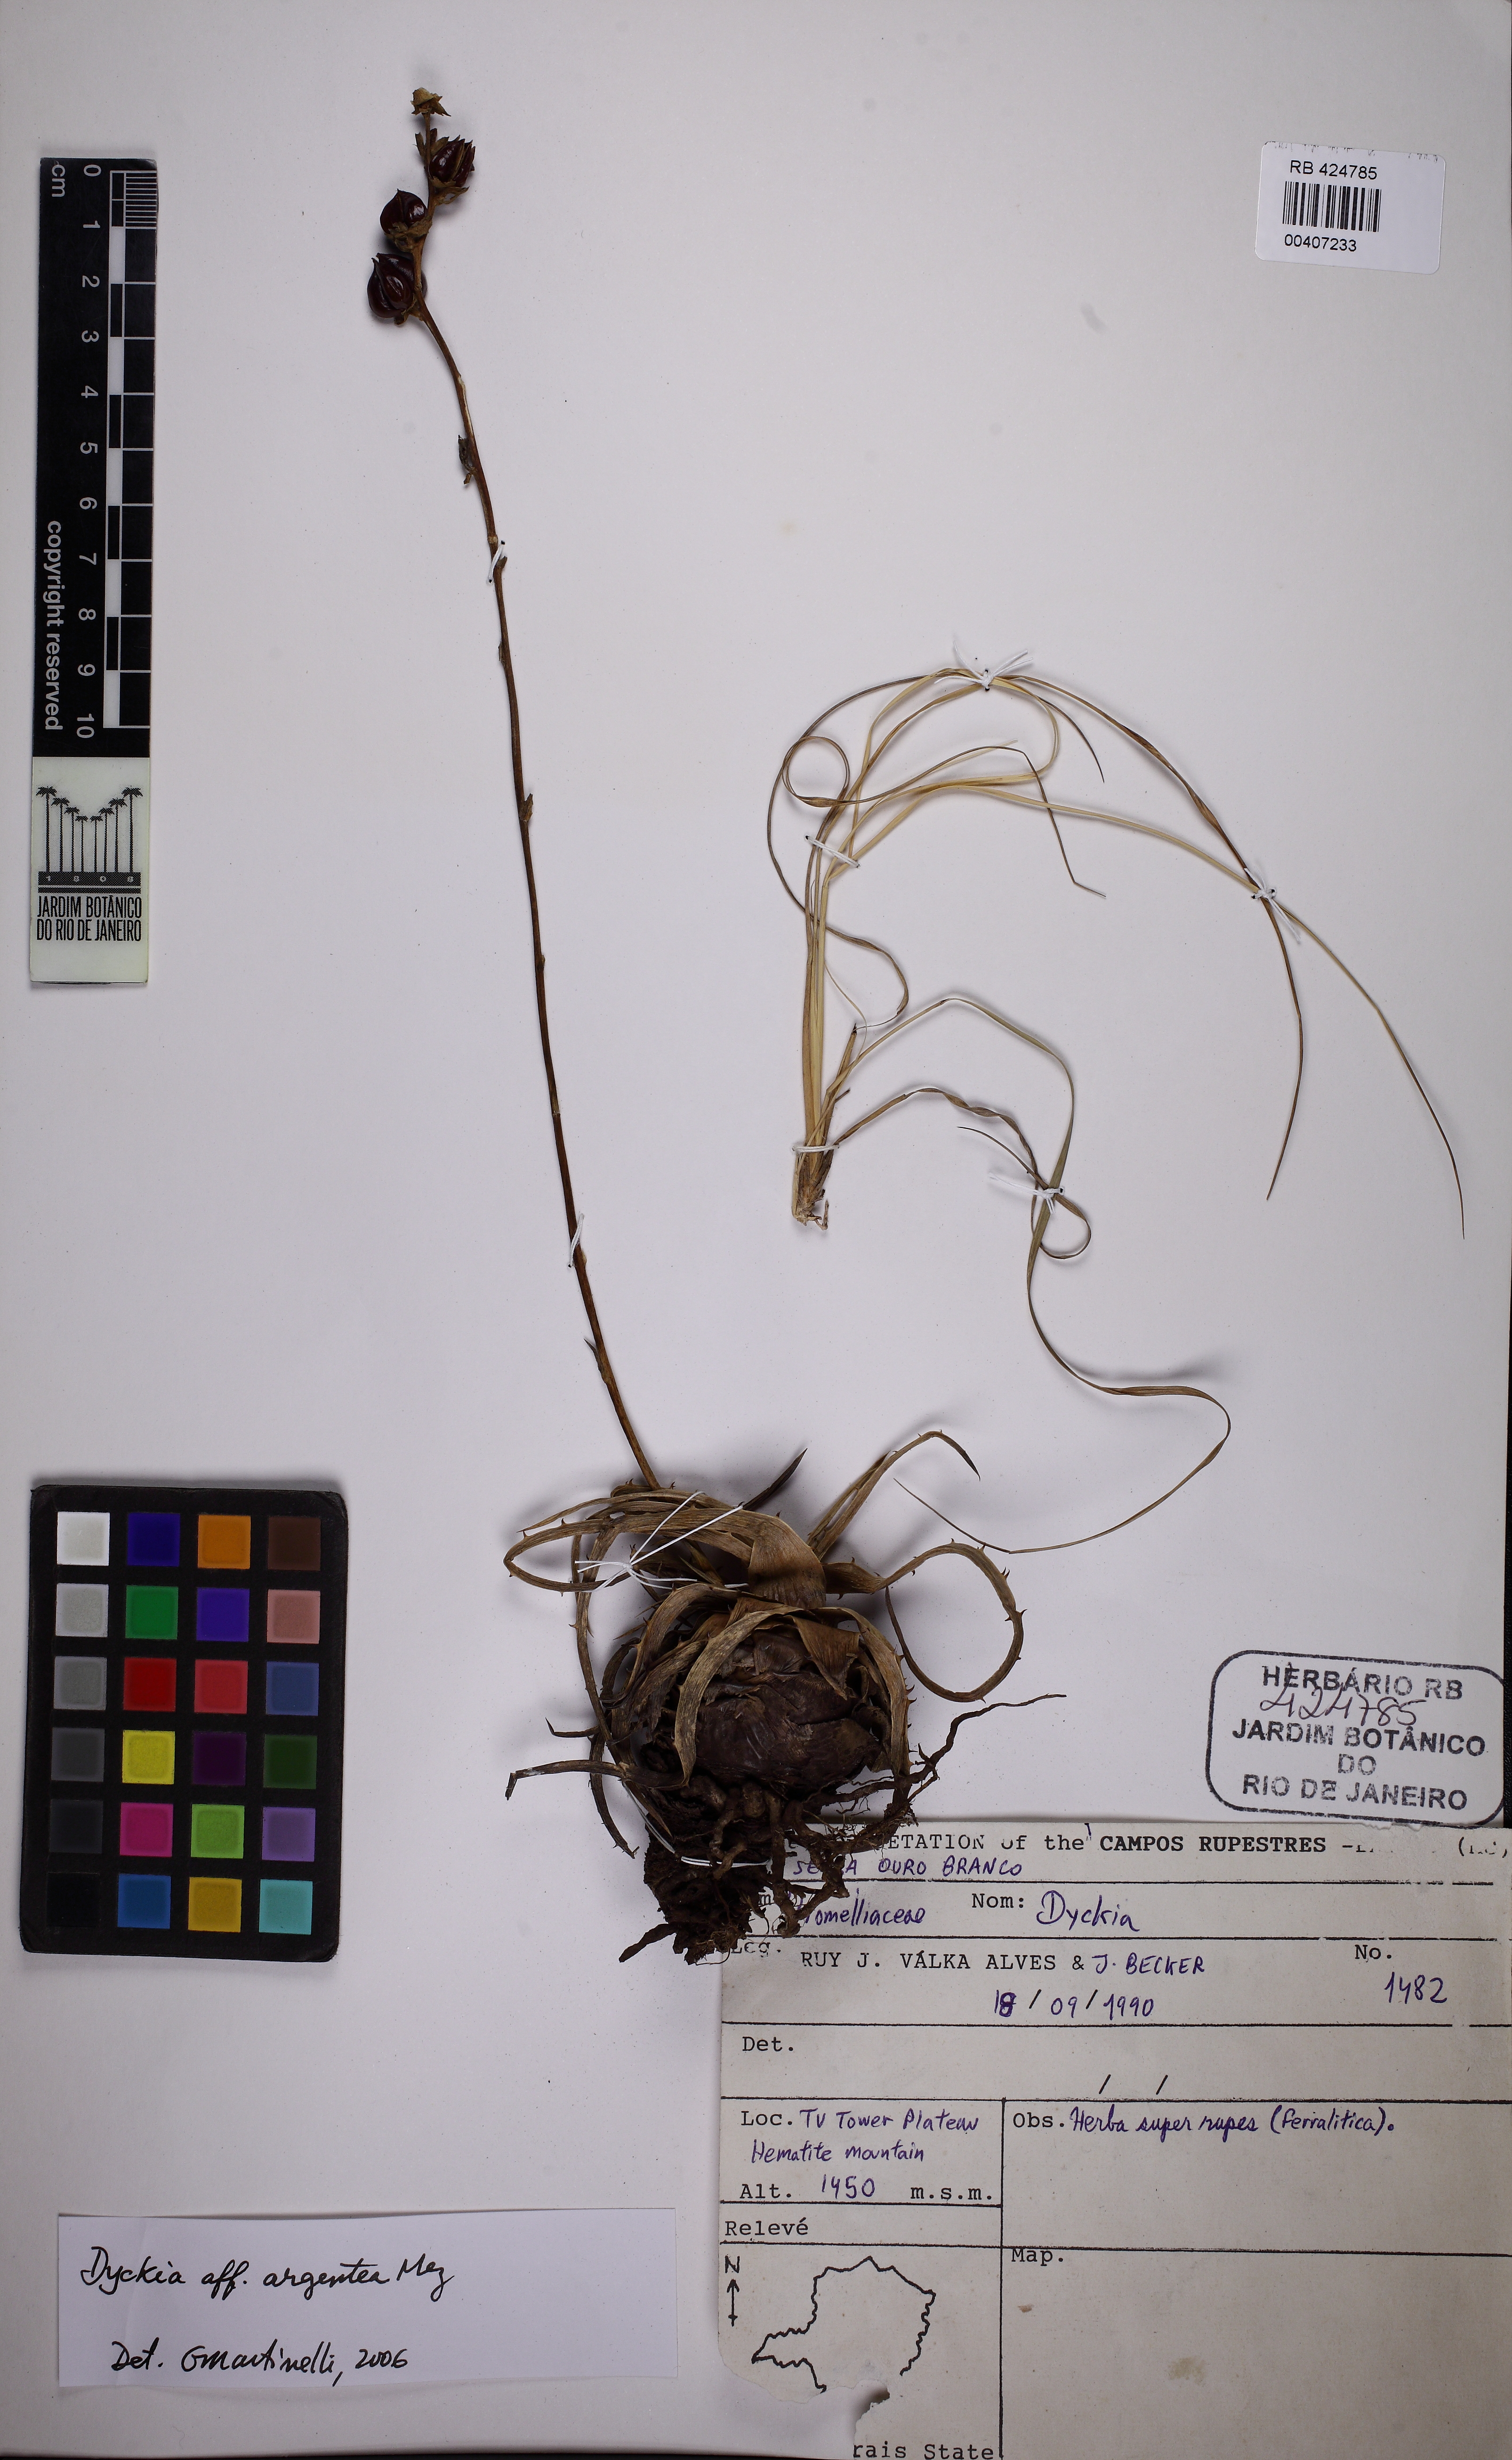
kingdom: Plantae
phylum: Tracheophyta
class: Liliopsida
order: Poales
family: Bromeliaceae
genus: Dyckia
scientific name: Dyckia bracteata
